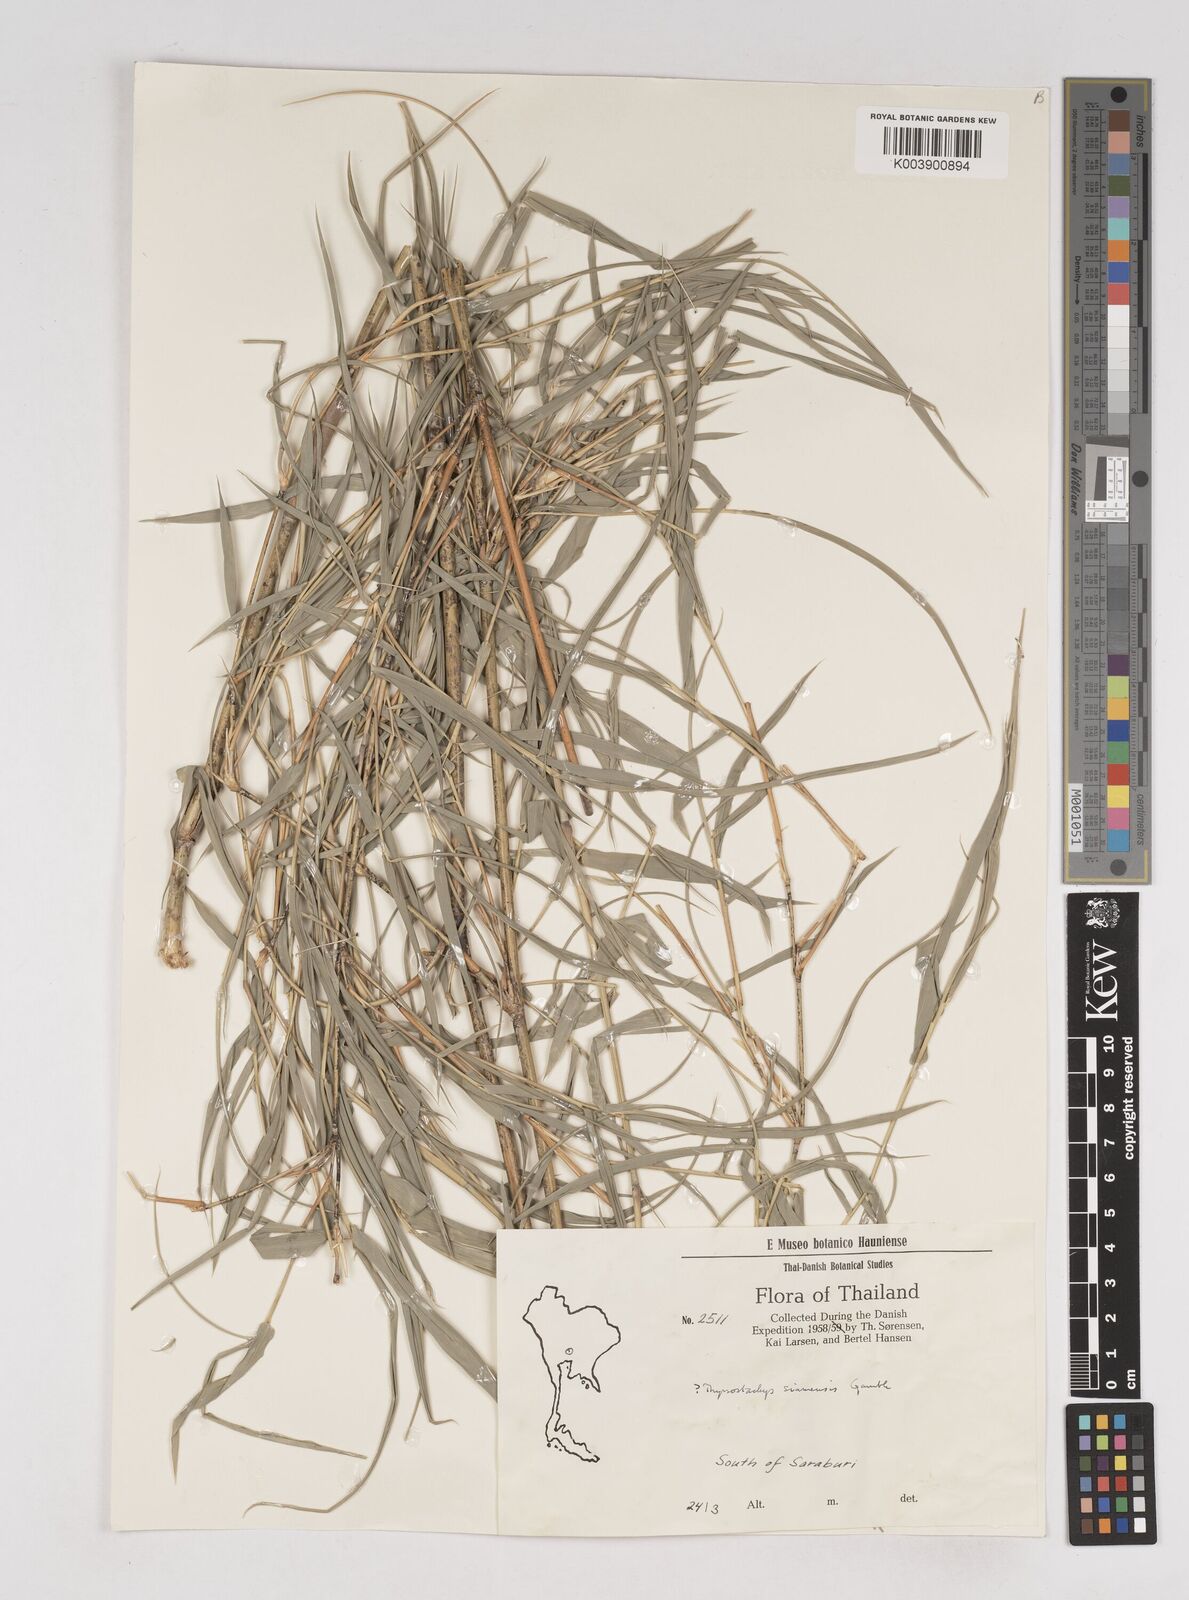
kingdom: Plantae
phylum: Tracheophyta
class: Liliopsida
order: Poales
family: Poaceae
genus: Thyrsostachys
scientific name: Thyrsostachys siamensis
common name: Thailand bamboo
